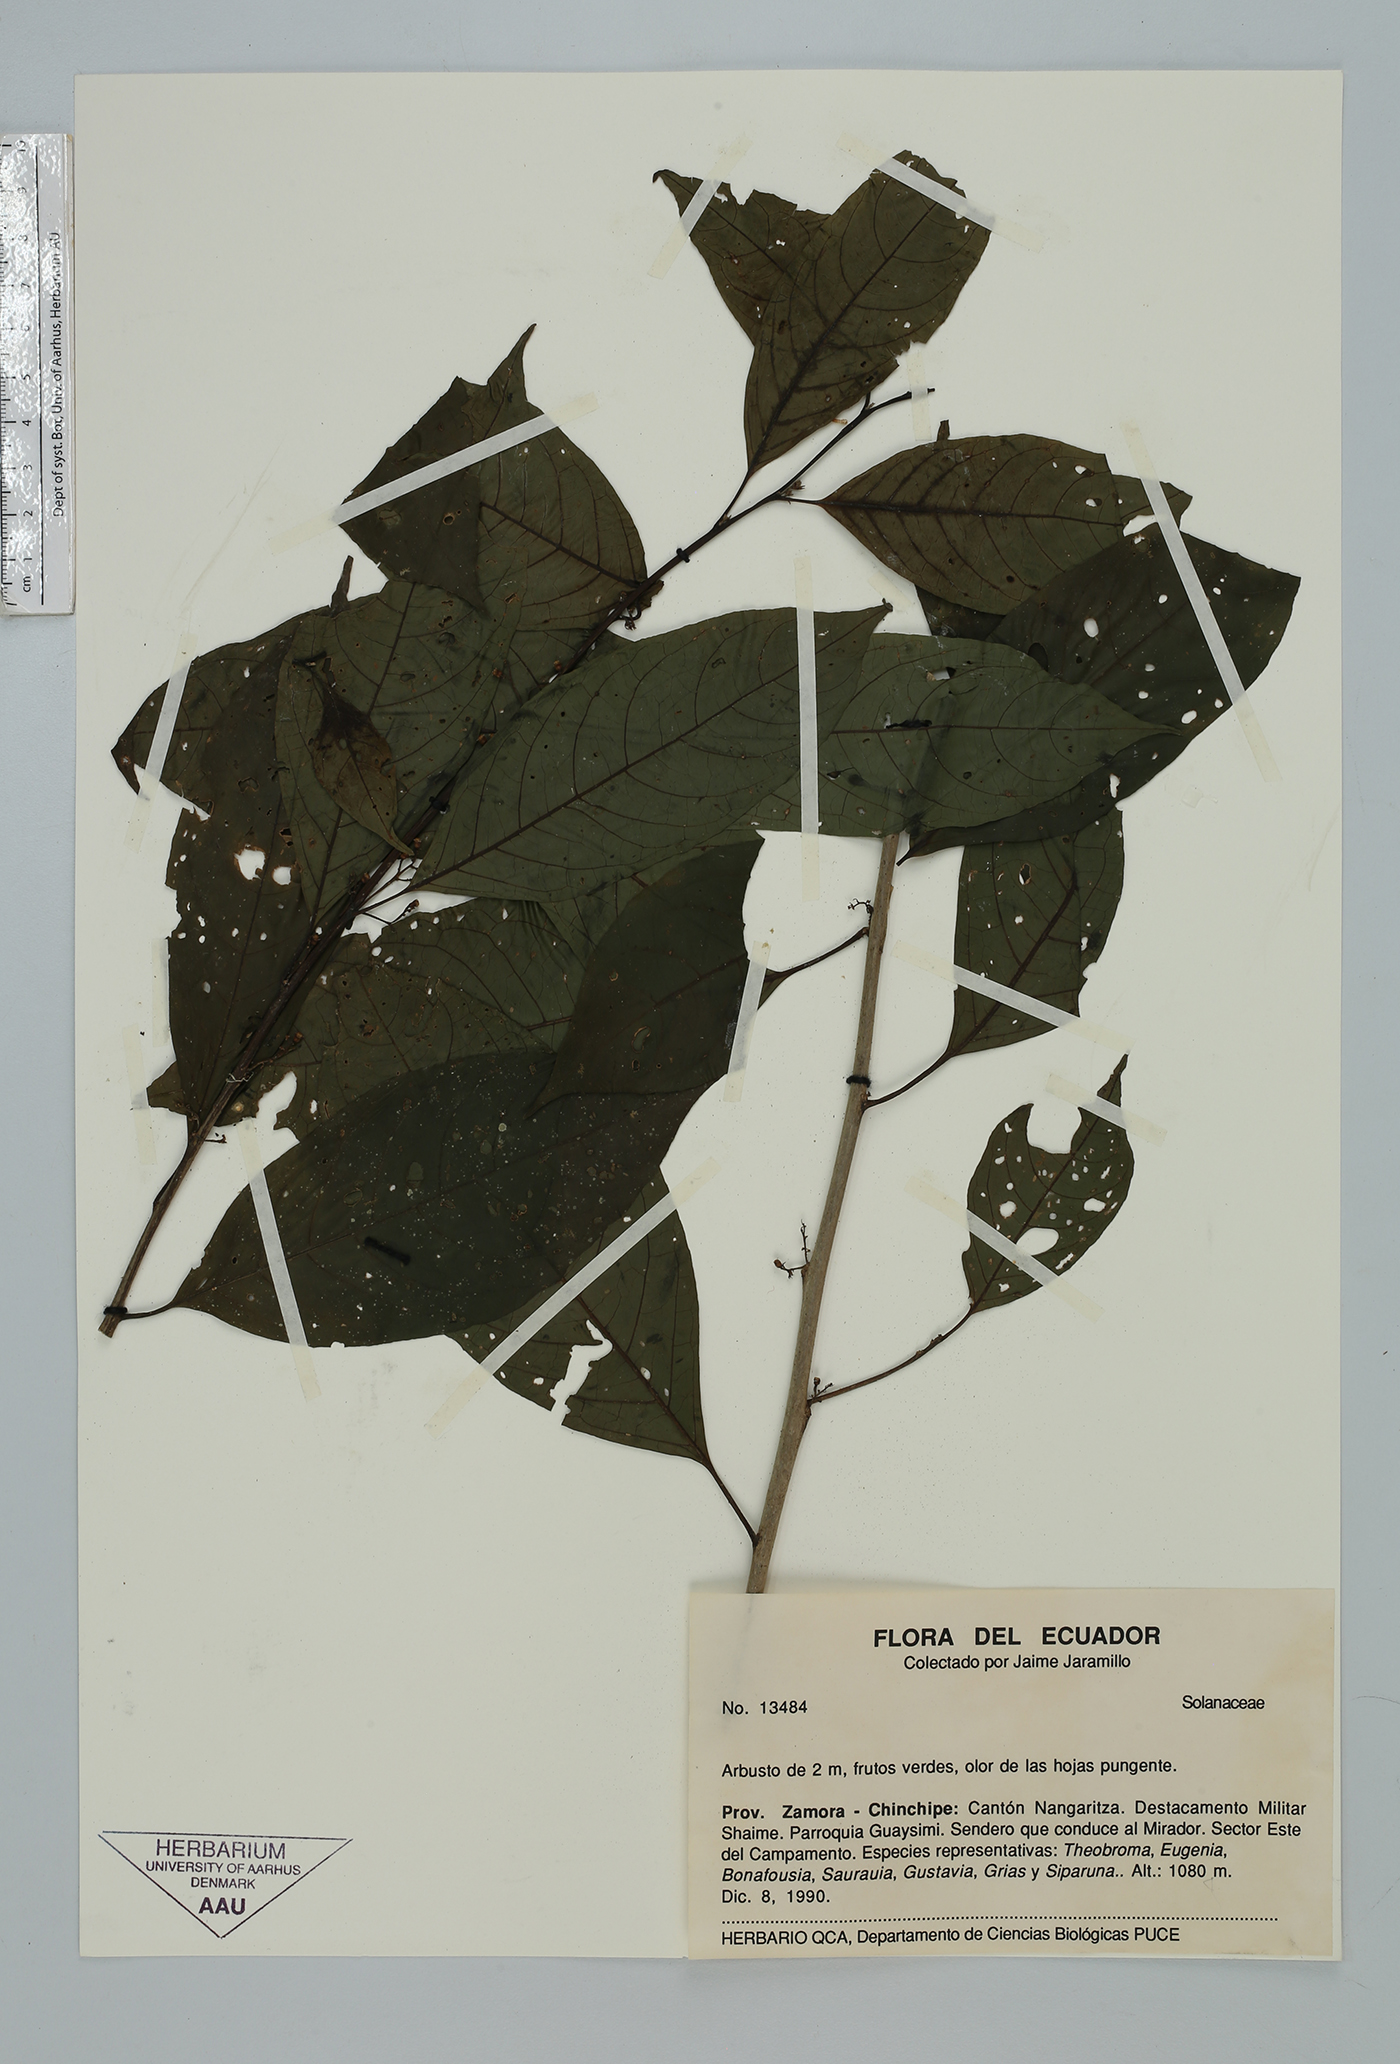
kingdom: Plantae
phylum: Tracheophyta
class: Magnoliopsida
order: Solanales
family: Solanaceae
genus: Solanum
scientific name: Solanum
